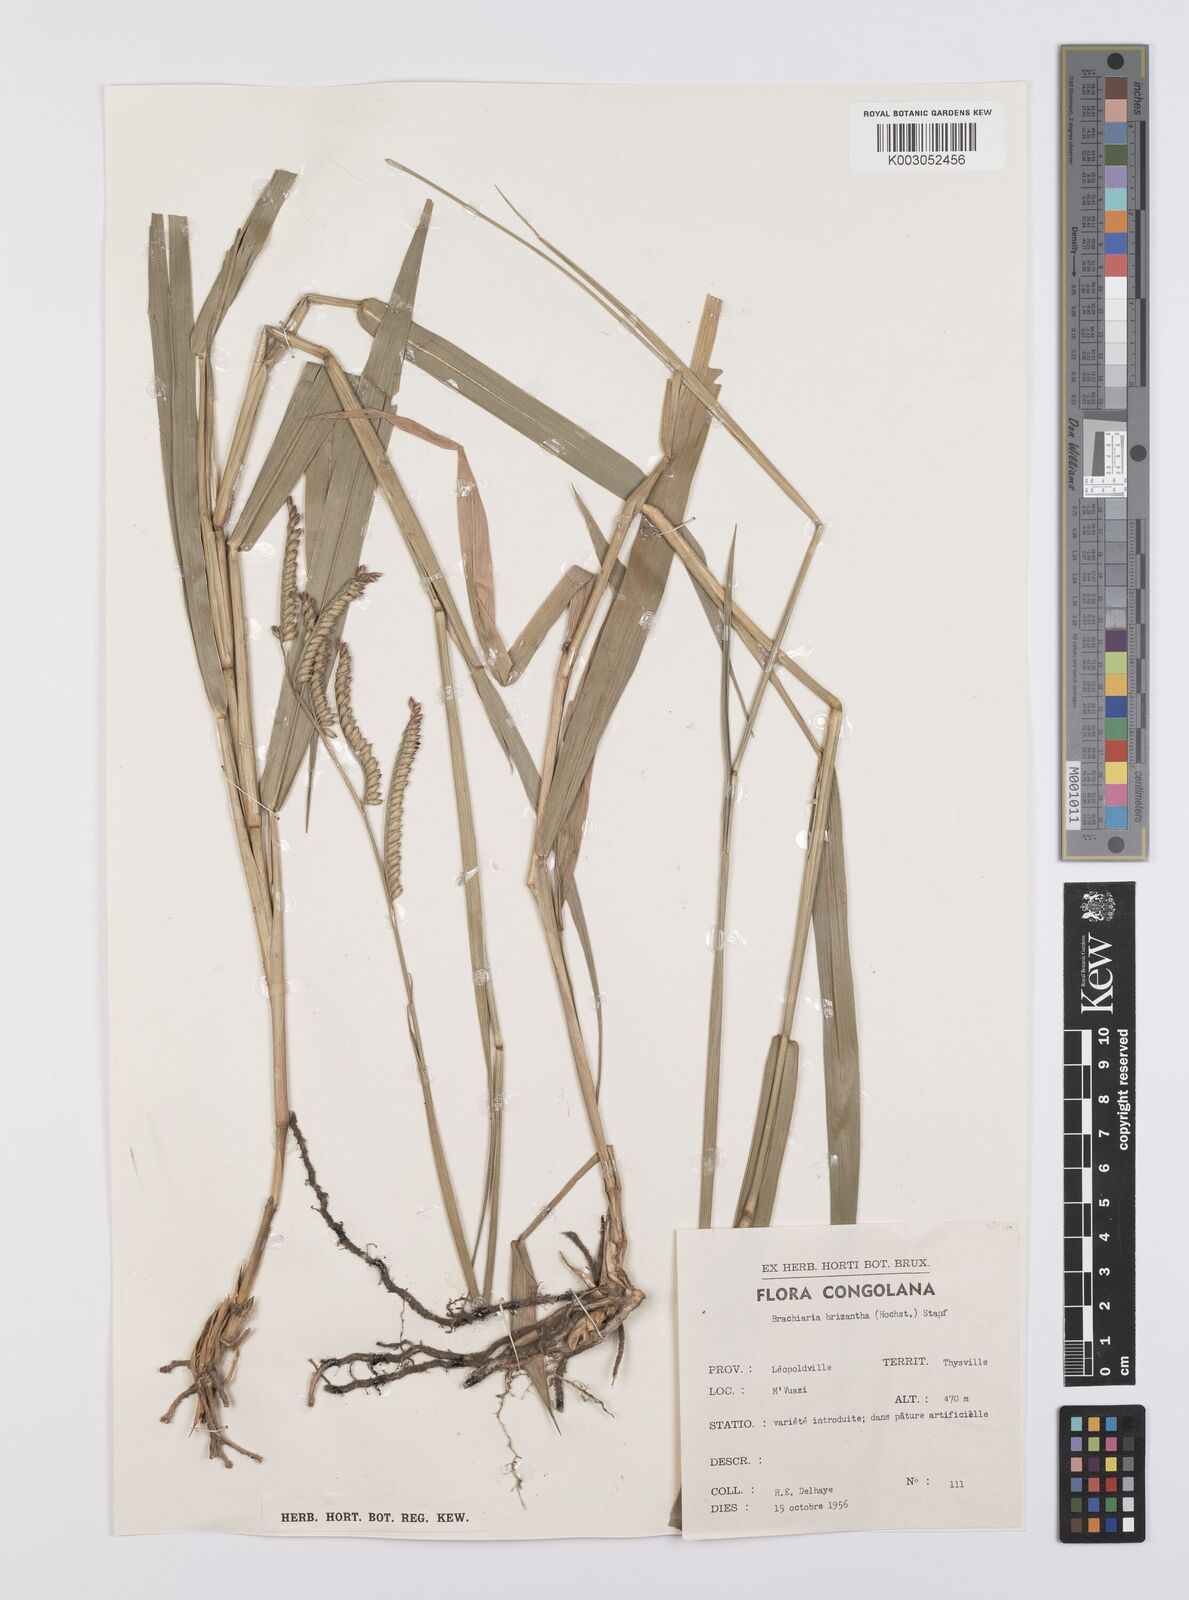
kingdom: Plantae
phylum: Tracheophyta
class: Liliopsida
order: Poales
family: Poaceae
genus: Urochloa
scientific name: Urochloa brizantha
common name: Palisade signalgrass
